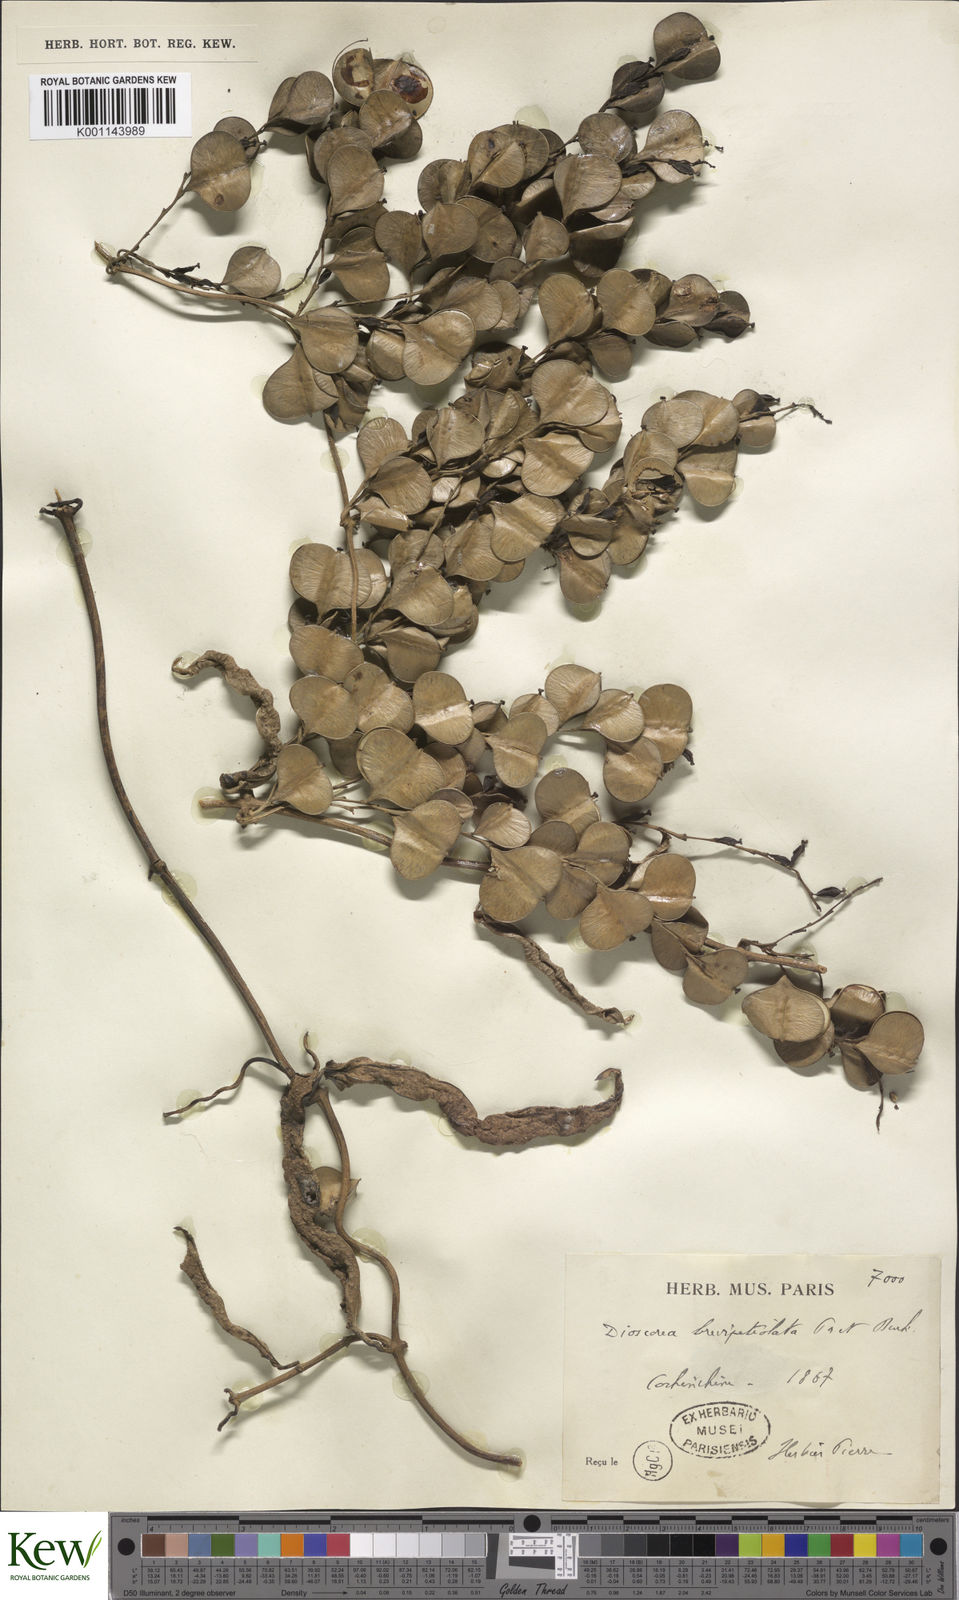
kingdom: Plantae
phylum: Tracheophyta
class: Liliopsida
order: Dioscoreales
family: Dioscoreaceae
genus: Dioscorea
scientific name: Dioscorea brevipetiolata
